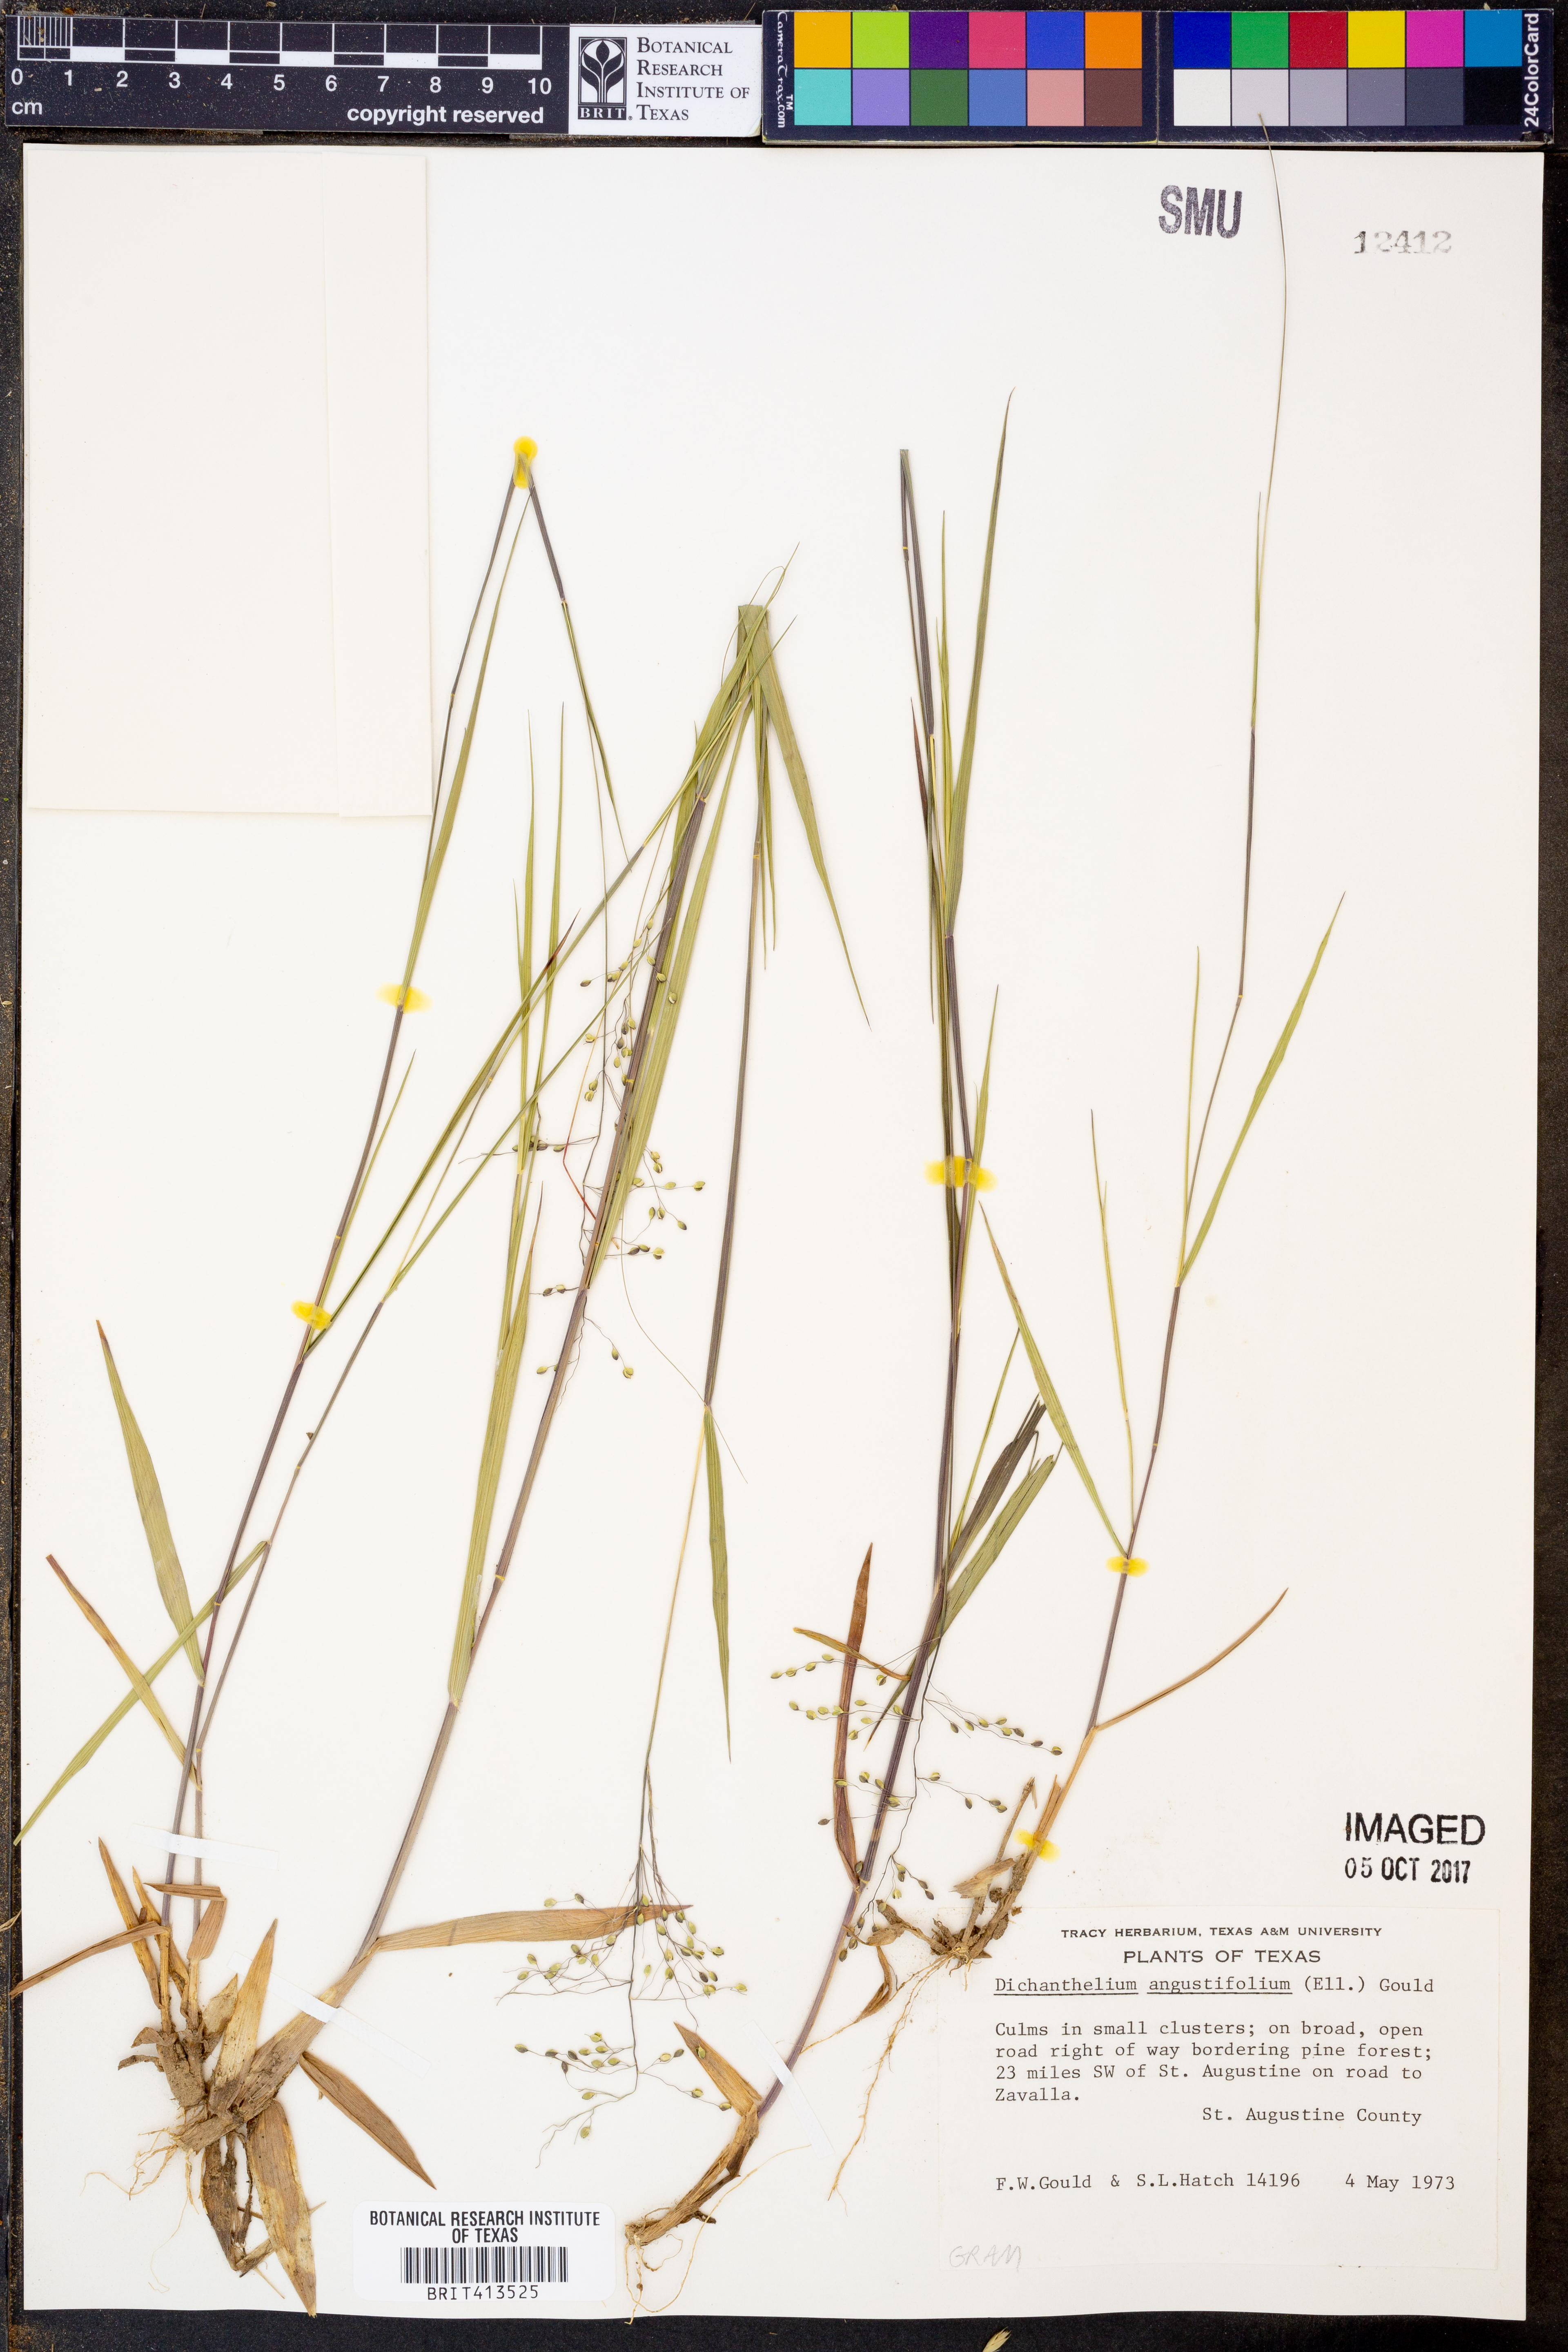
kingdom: Plantae
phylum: Tracheophyta
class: Liliopsida
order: Poales
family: Poaceae
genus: Dichanthelium
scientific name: Dichanthelium angustifolium
